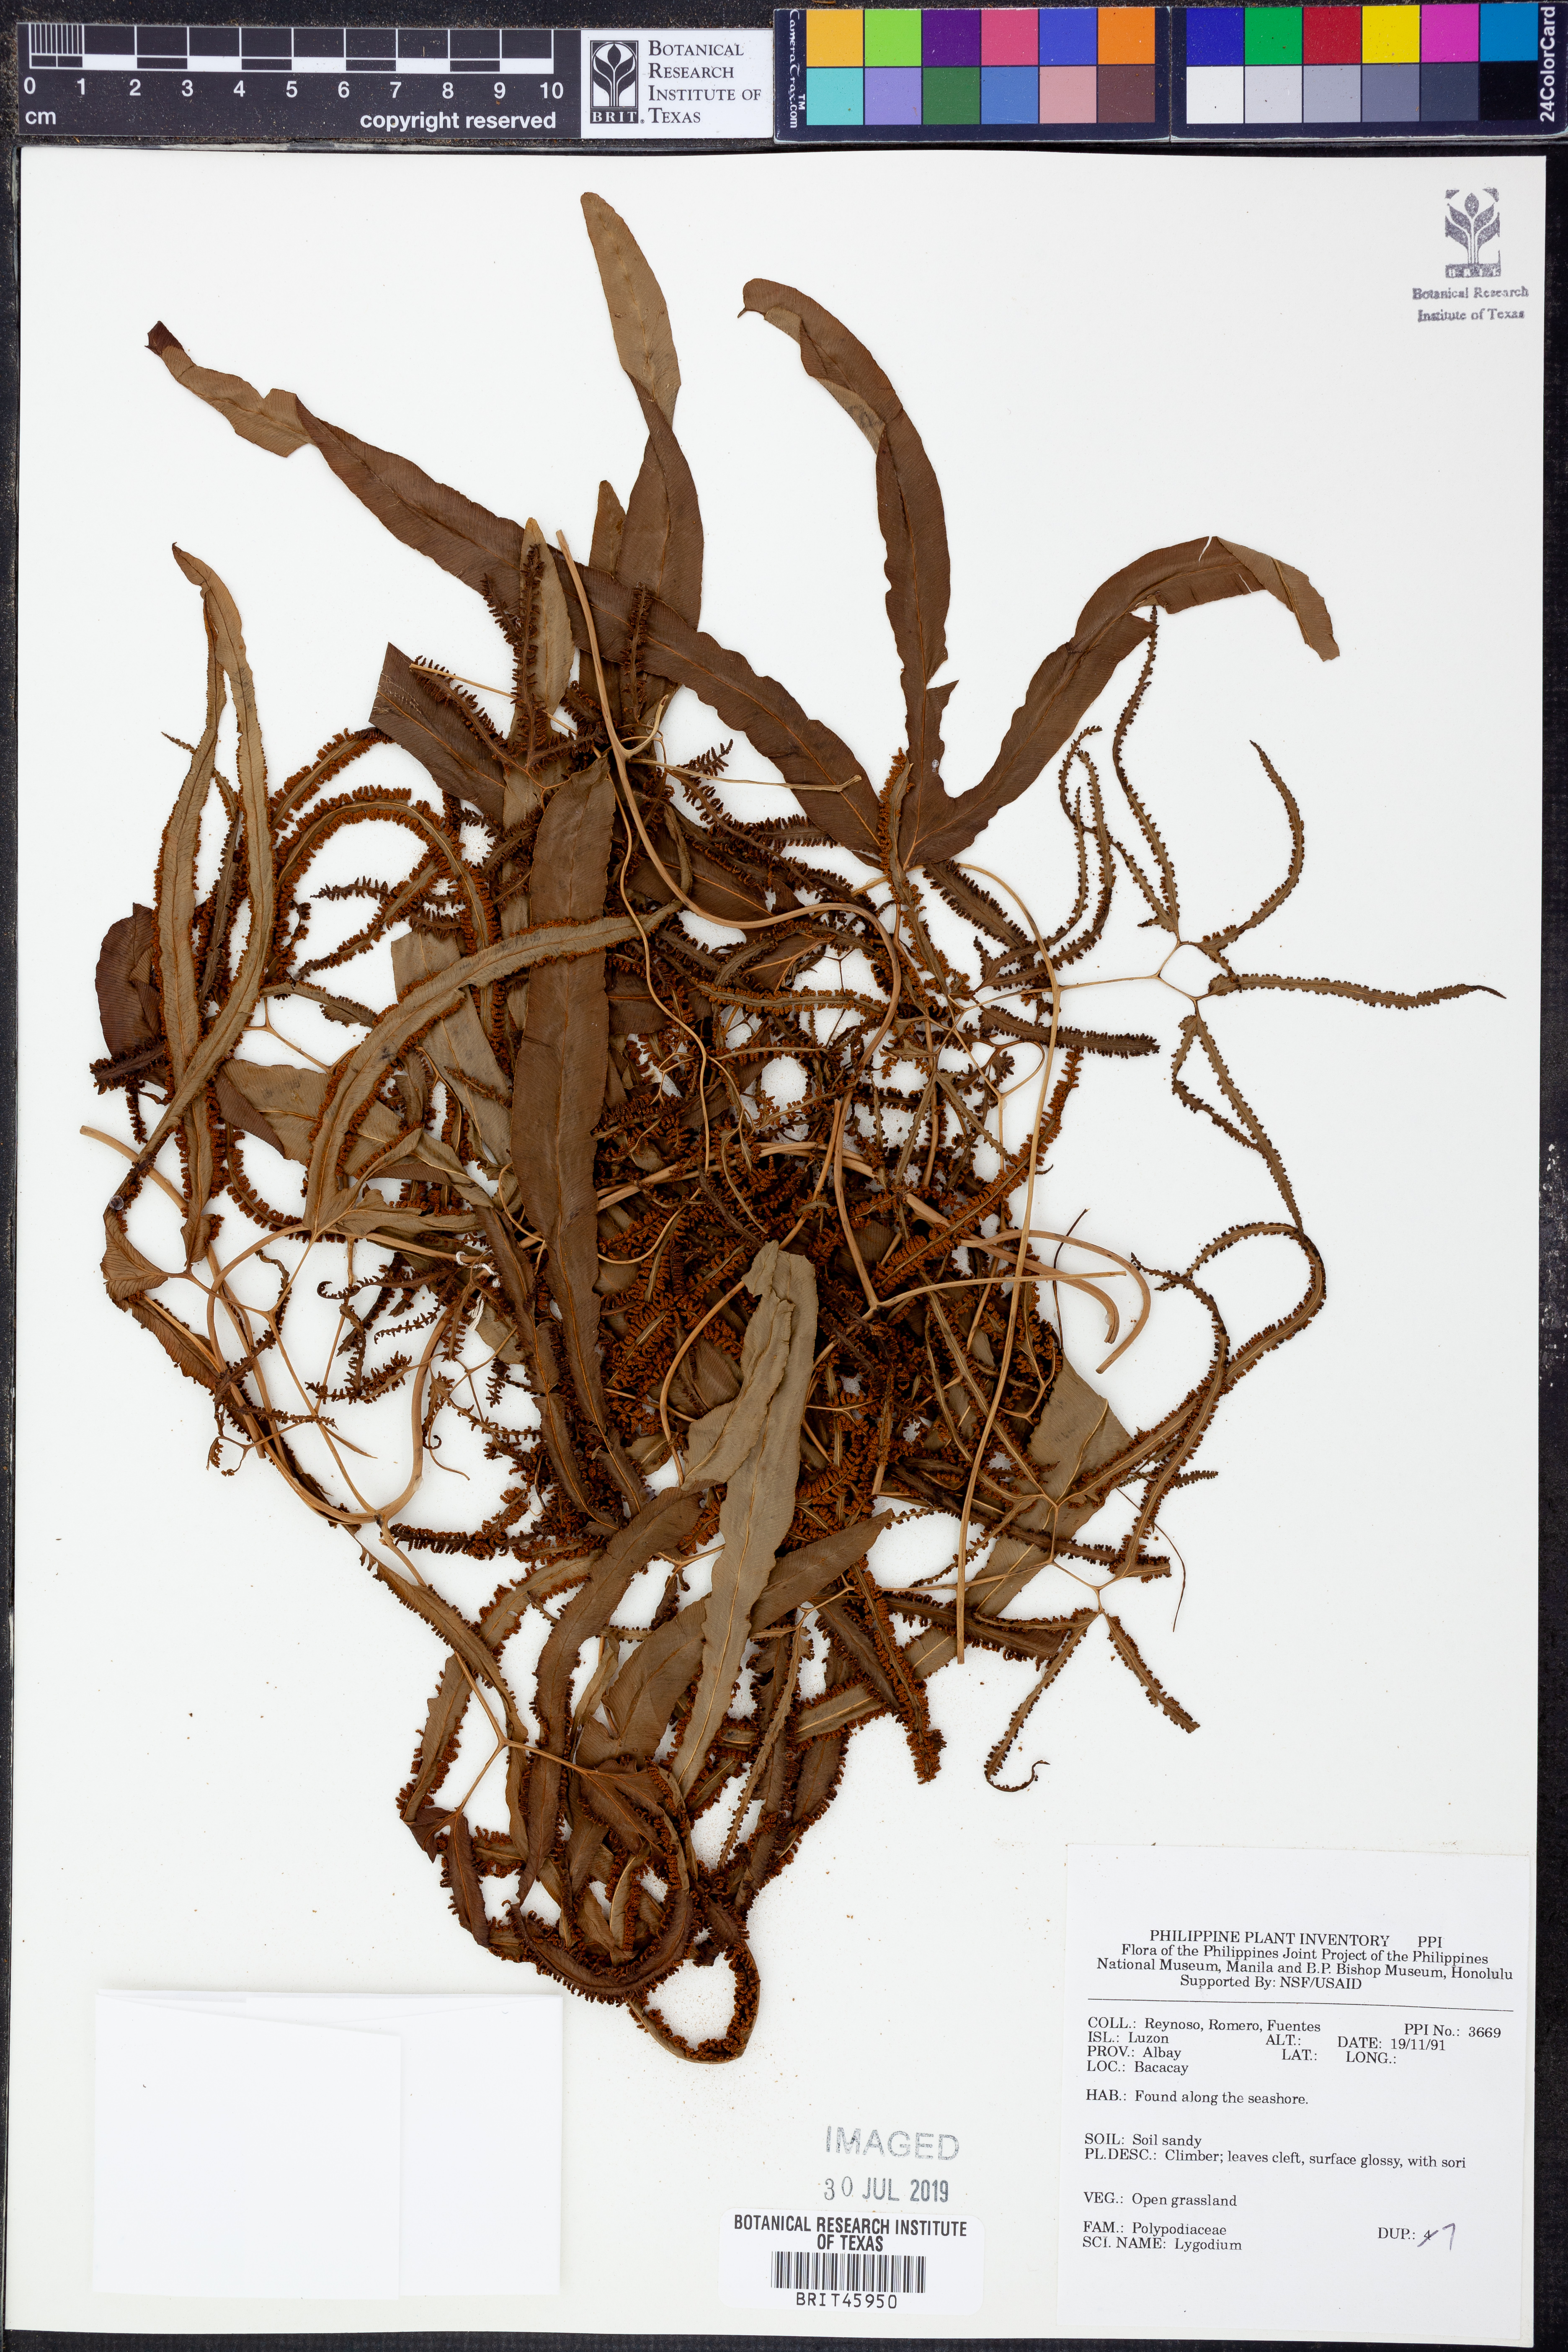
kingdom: Plantae
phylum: Tracheophyta
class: Polypodiopsida
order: Schizaeales
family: Lygodiaceae
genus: Lygodium
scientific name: Lygodium
